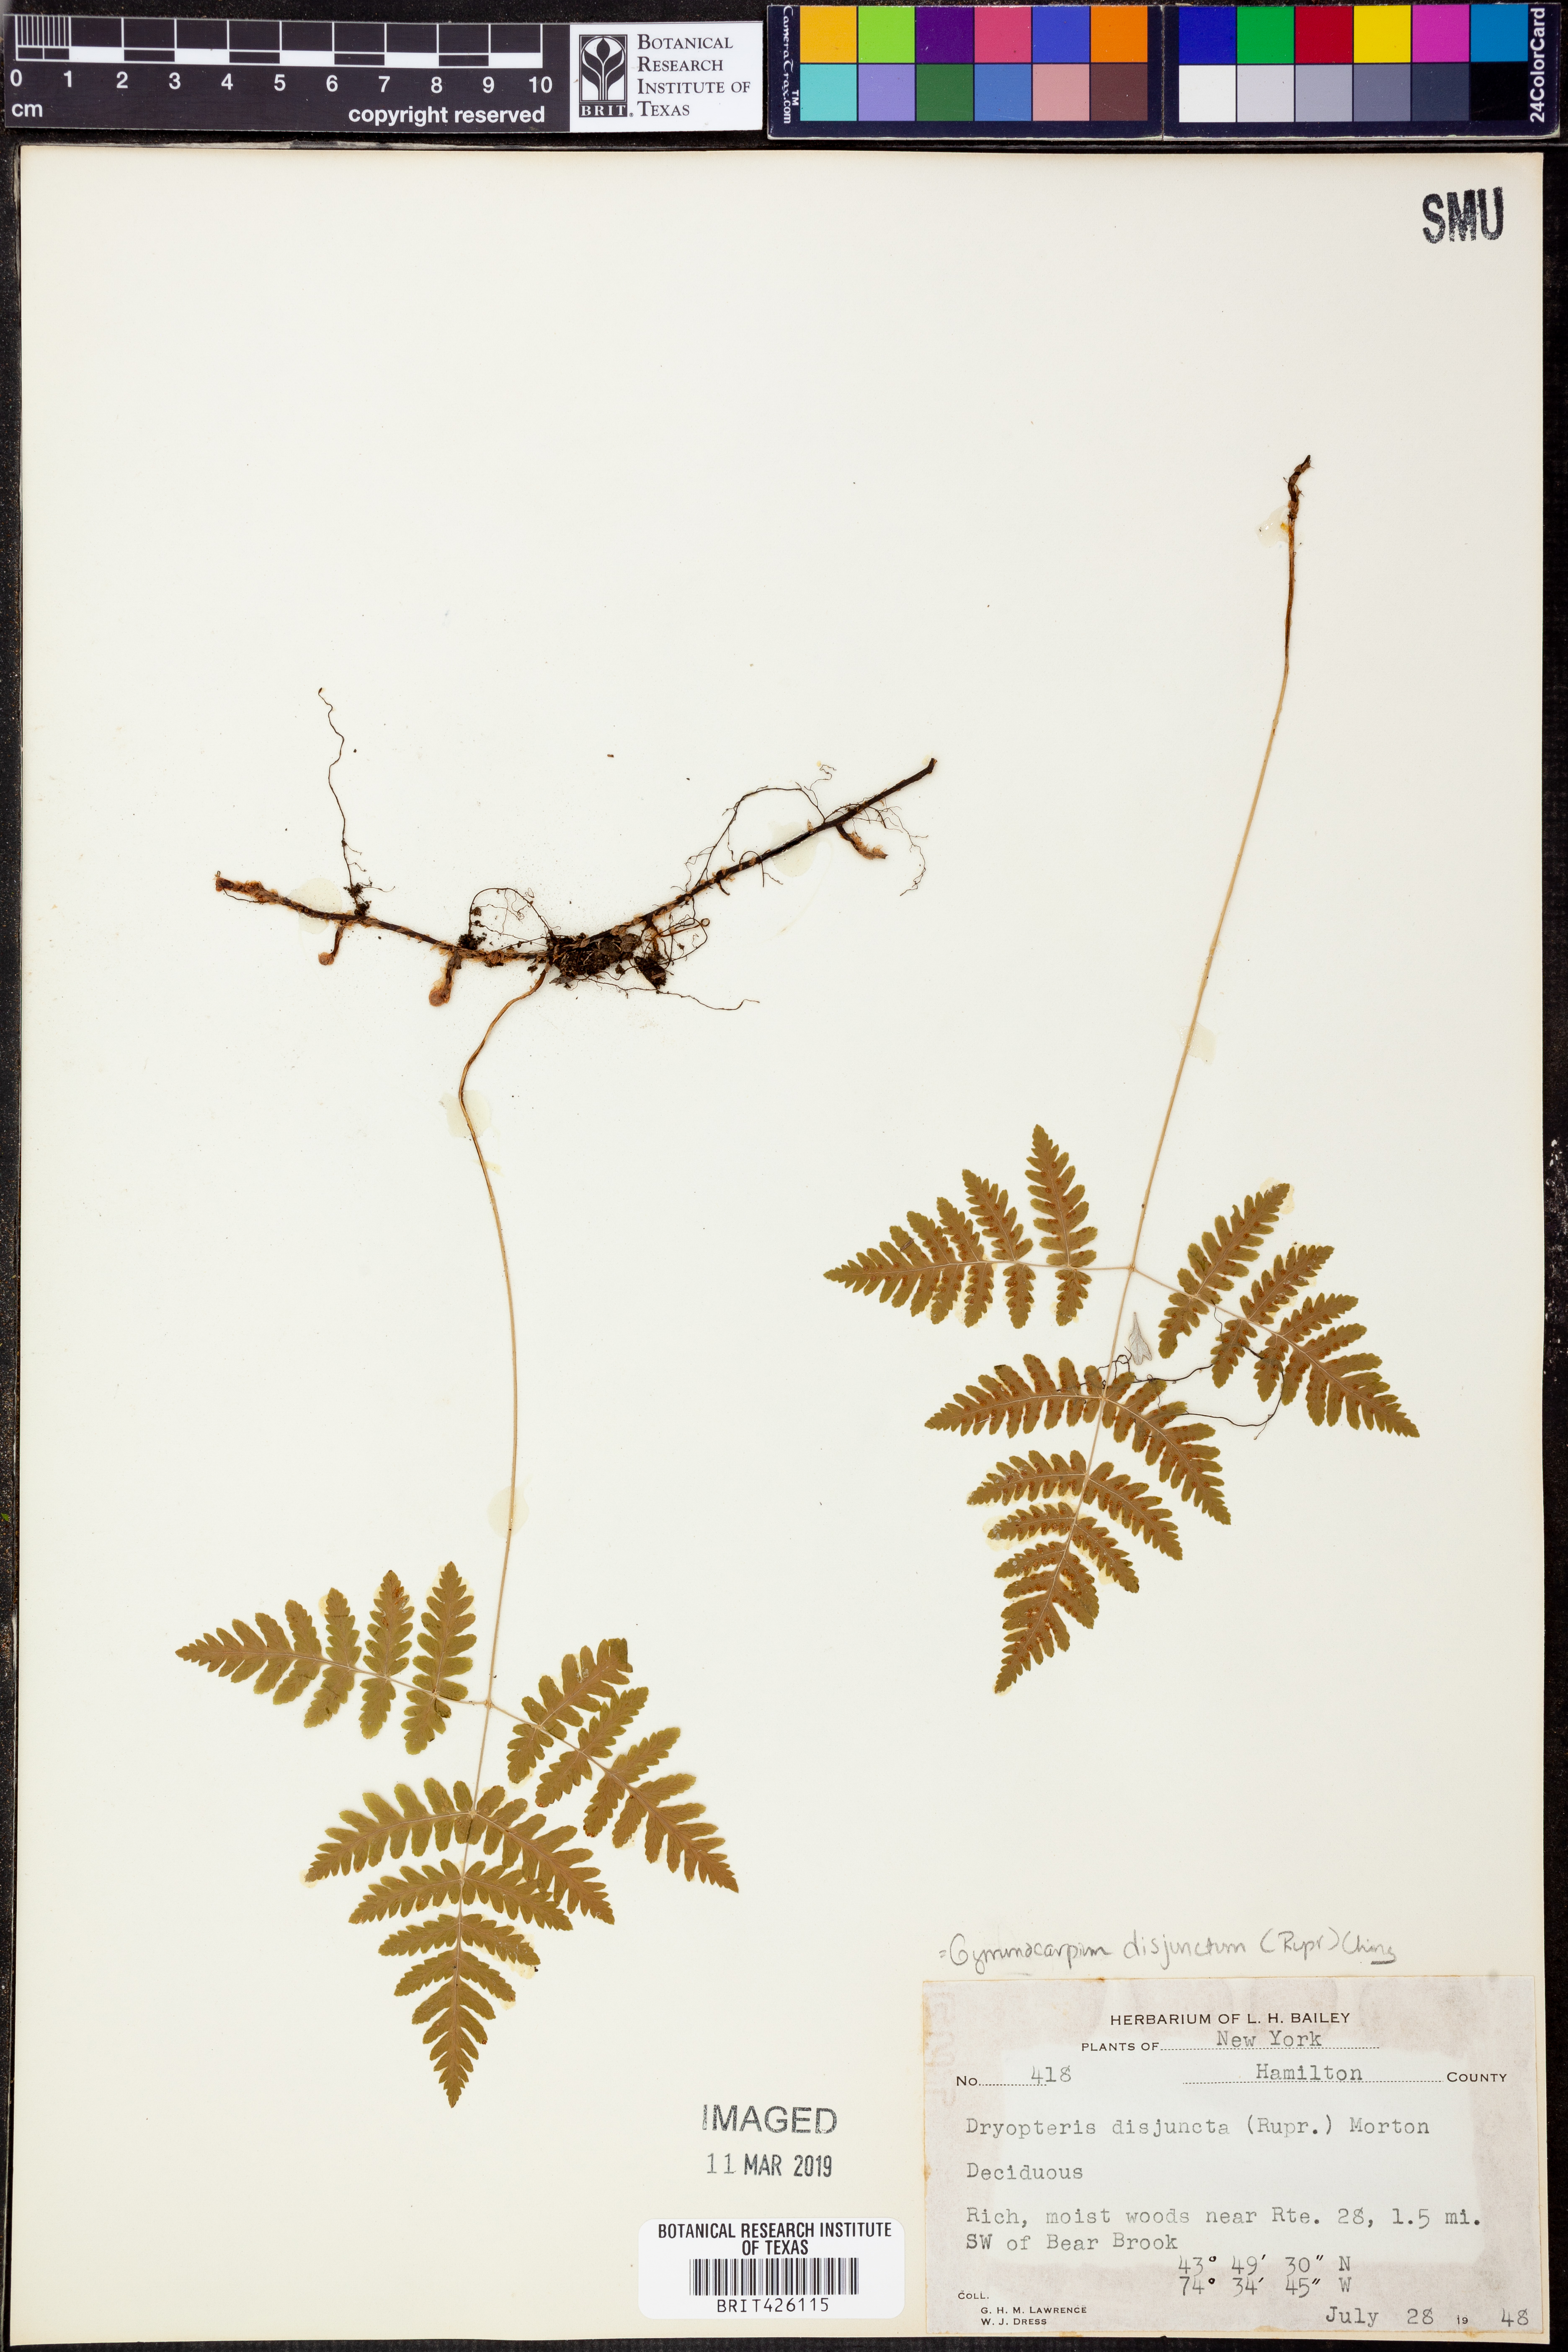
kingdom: Plantae
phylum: Tracheophyta
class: Polypodiopsida
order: Polypodiales
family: Cystopteridaceae
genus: Gymnocarpium
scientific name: Gymnocarpium disjunctum
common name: Western oak fern
